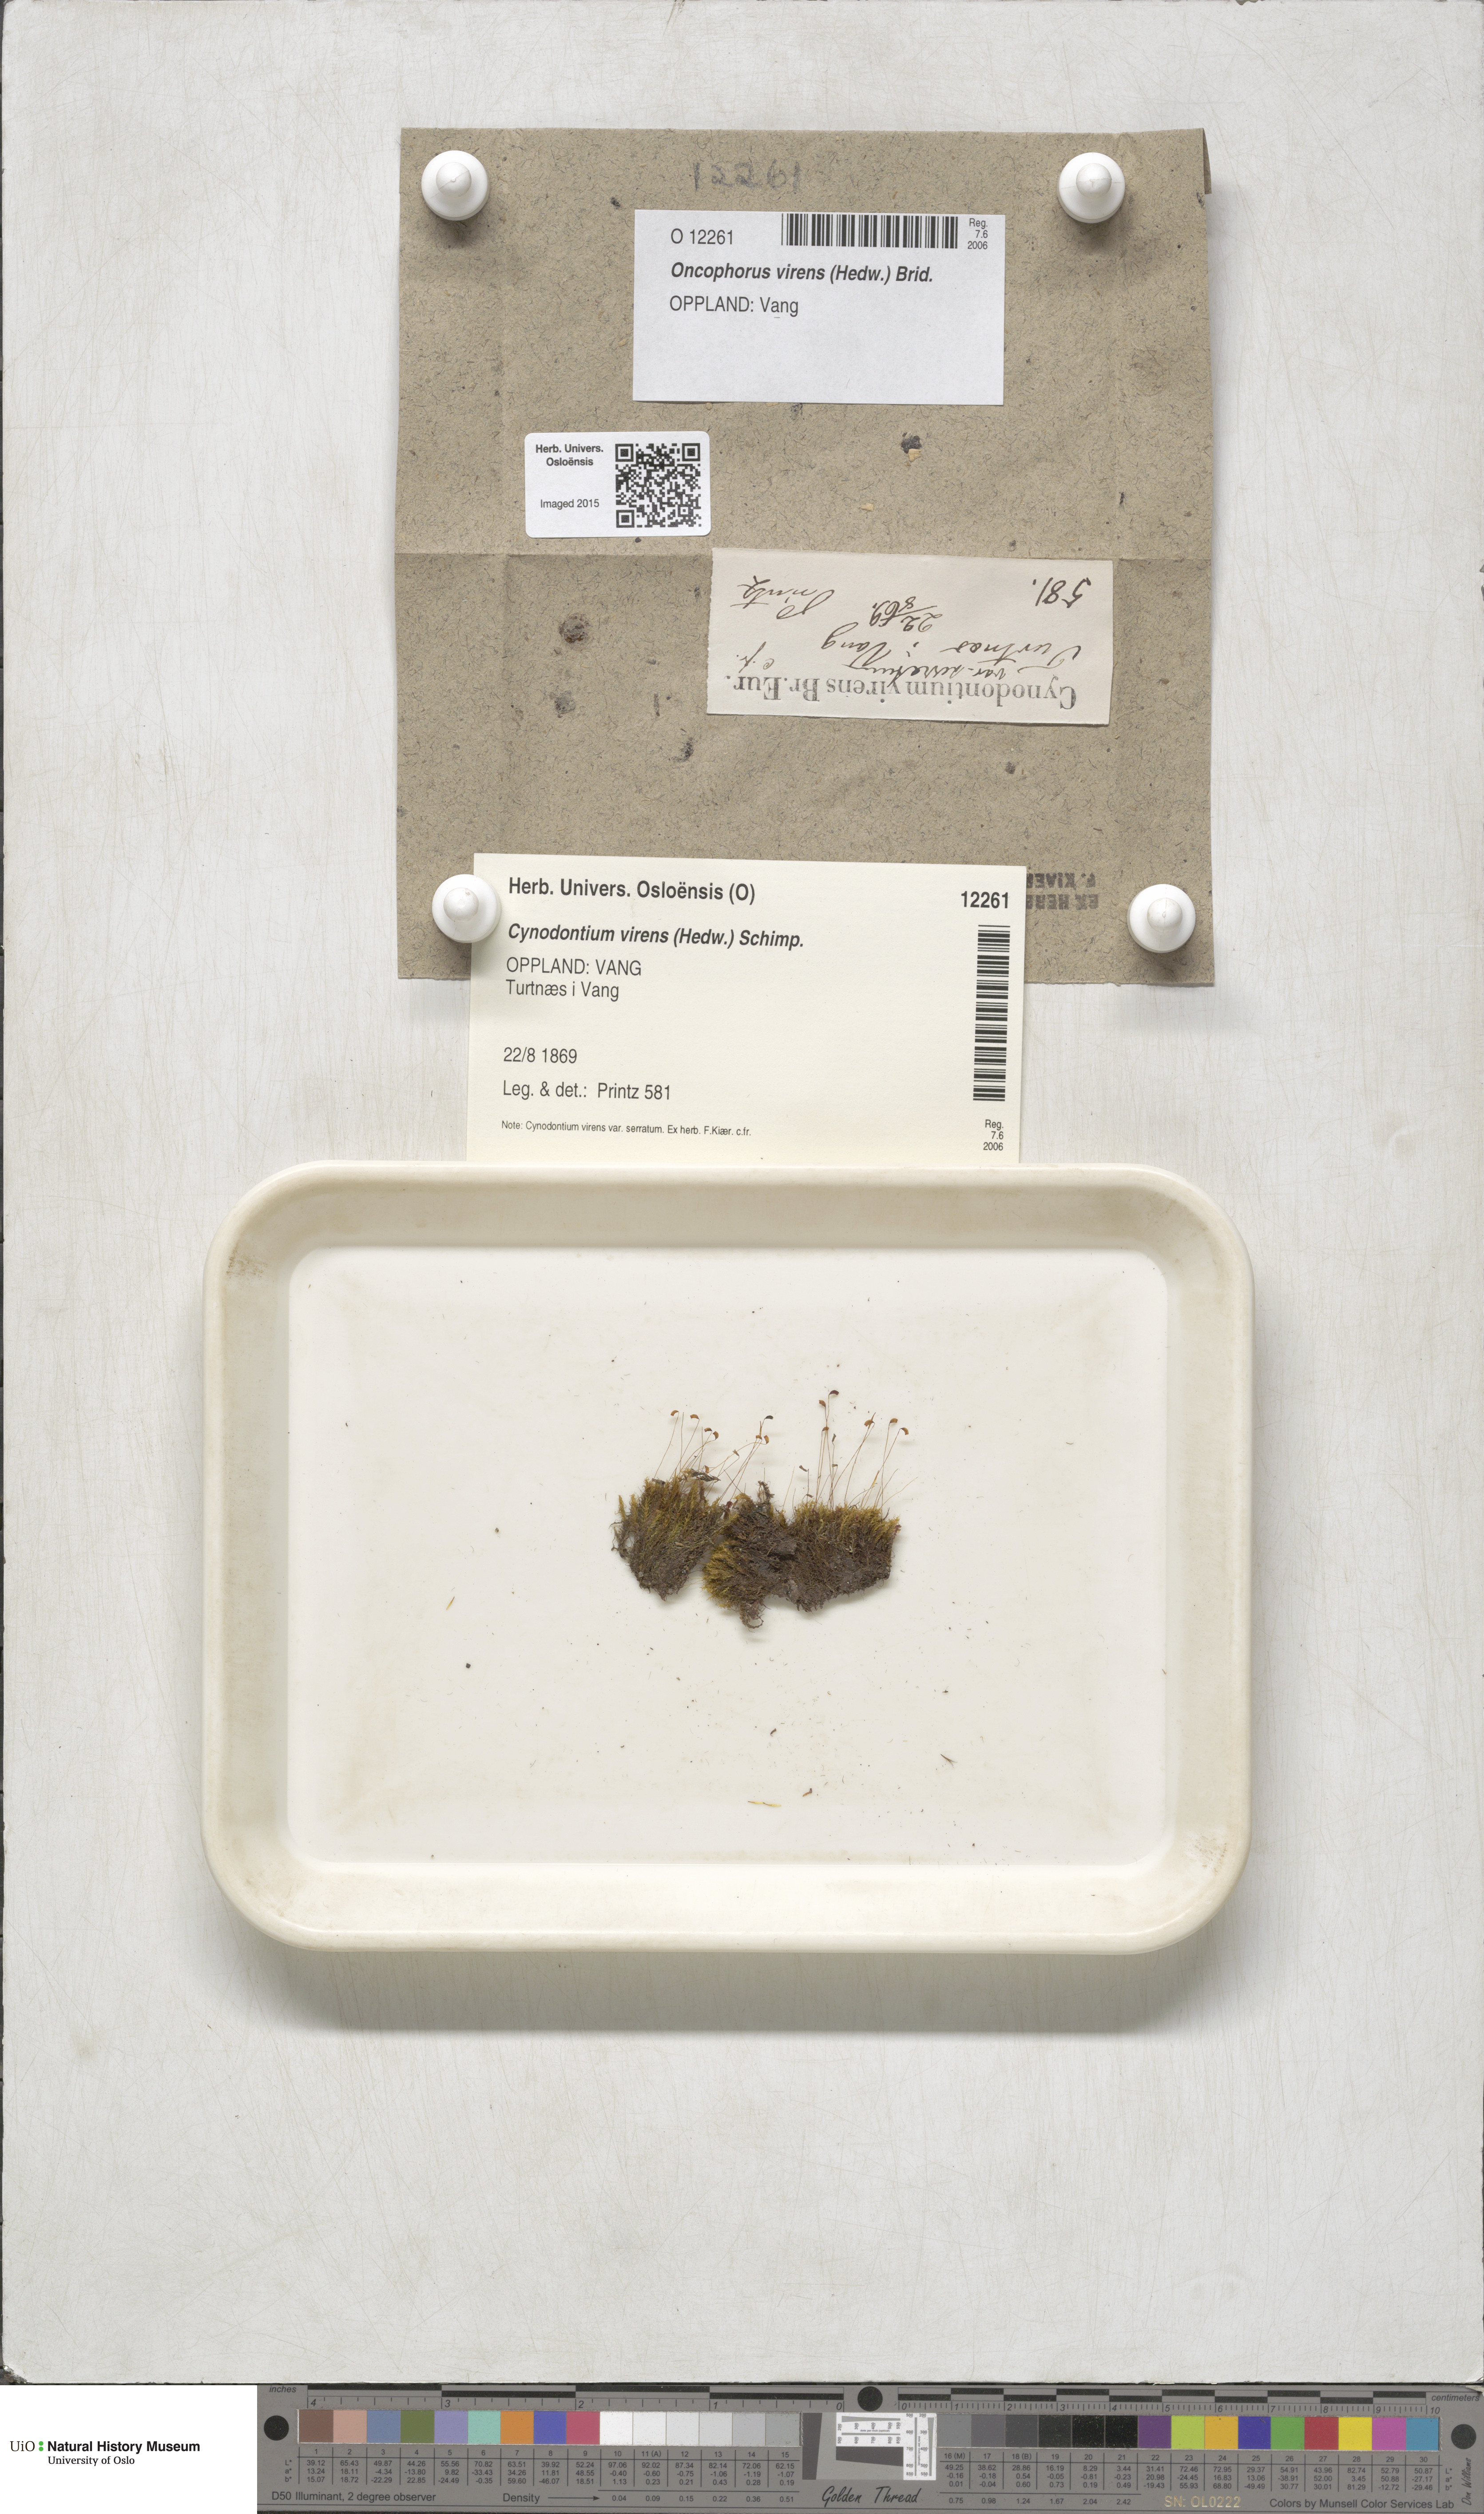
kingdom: Plantae
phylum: Bryophyta
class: Bryopsida
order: Dicranales
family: Rhabdoweisiaceae
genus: Oncophorus
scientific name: Oncophorus virens
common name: Green spur moss
